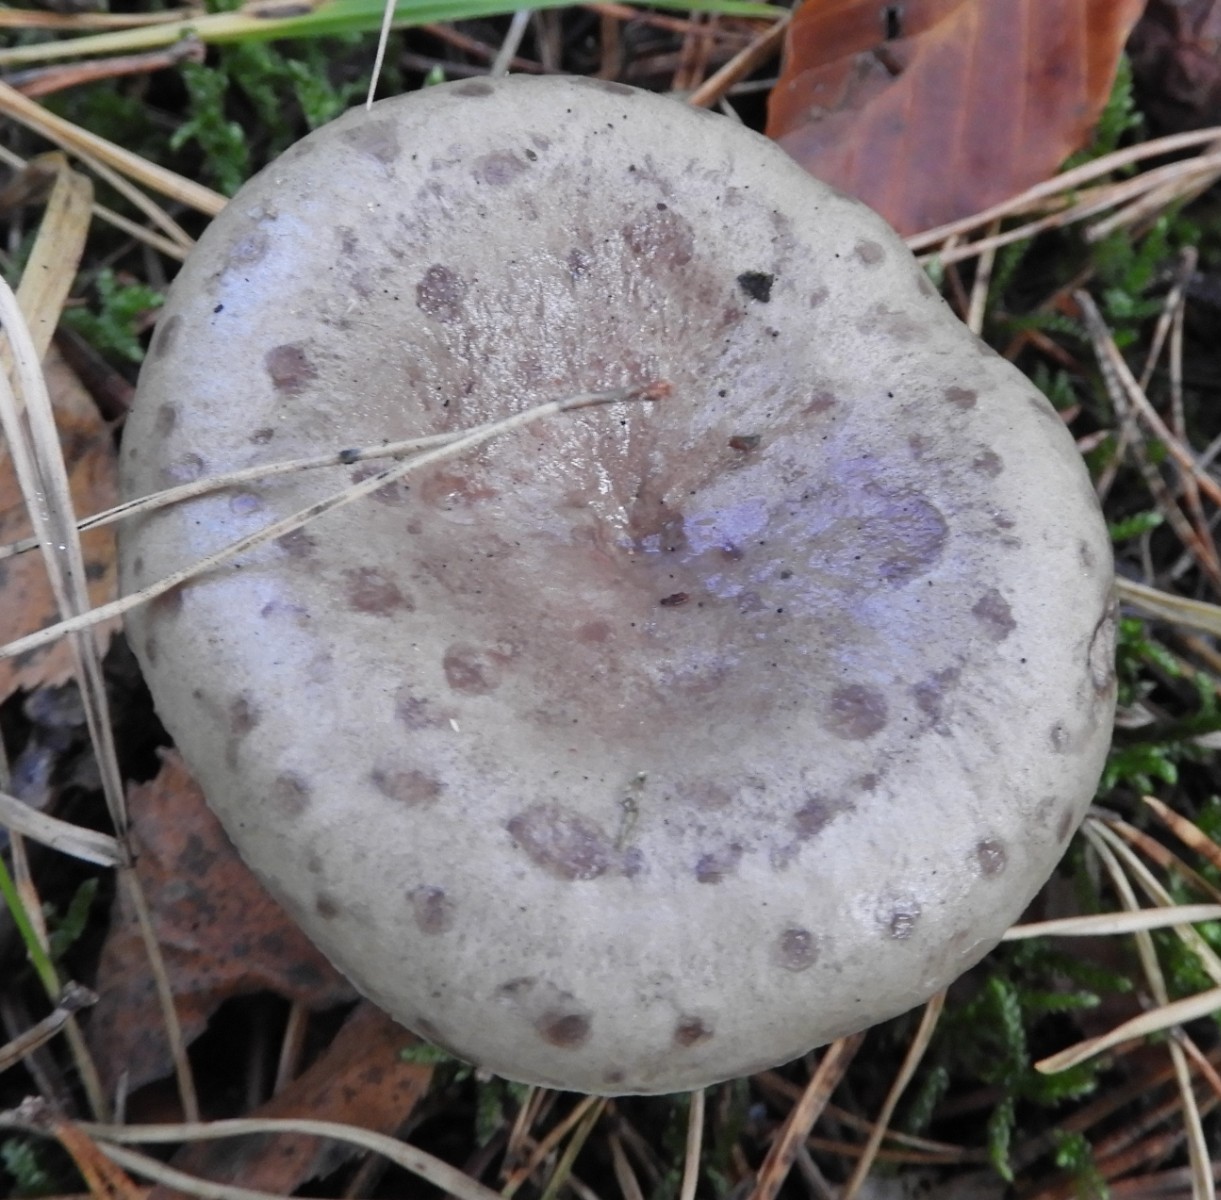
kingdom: Fungi
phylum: Basidiomycota
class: Agaricomycetes
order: Russulales
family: Russulaceae
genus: Lactarius
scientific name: Lactarius blennius
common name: dråbeplettet mælkehat
